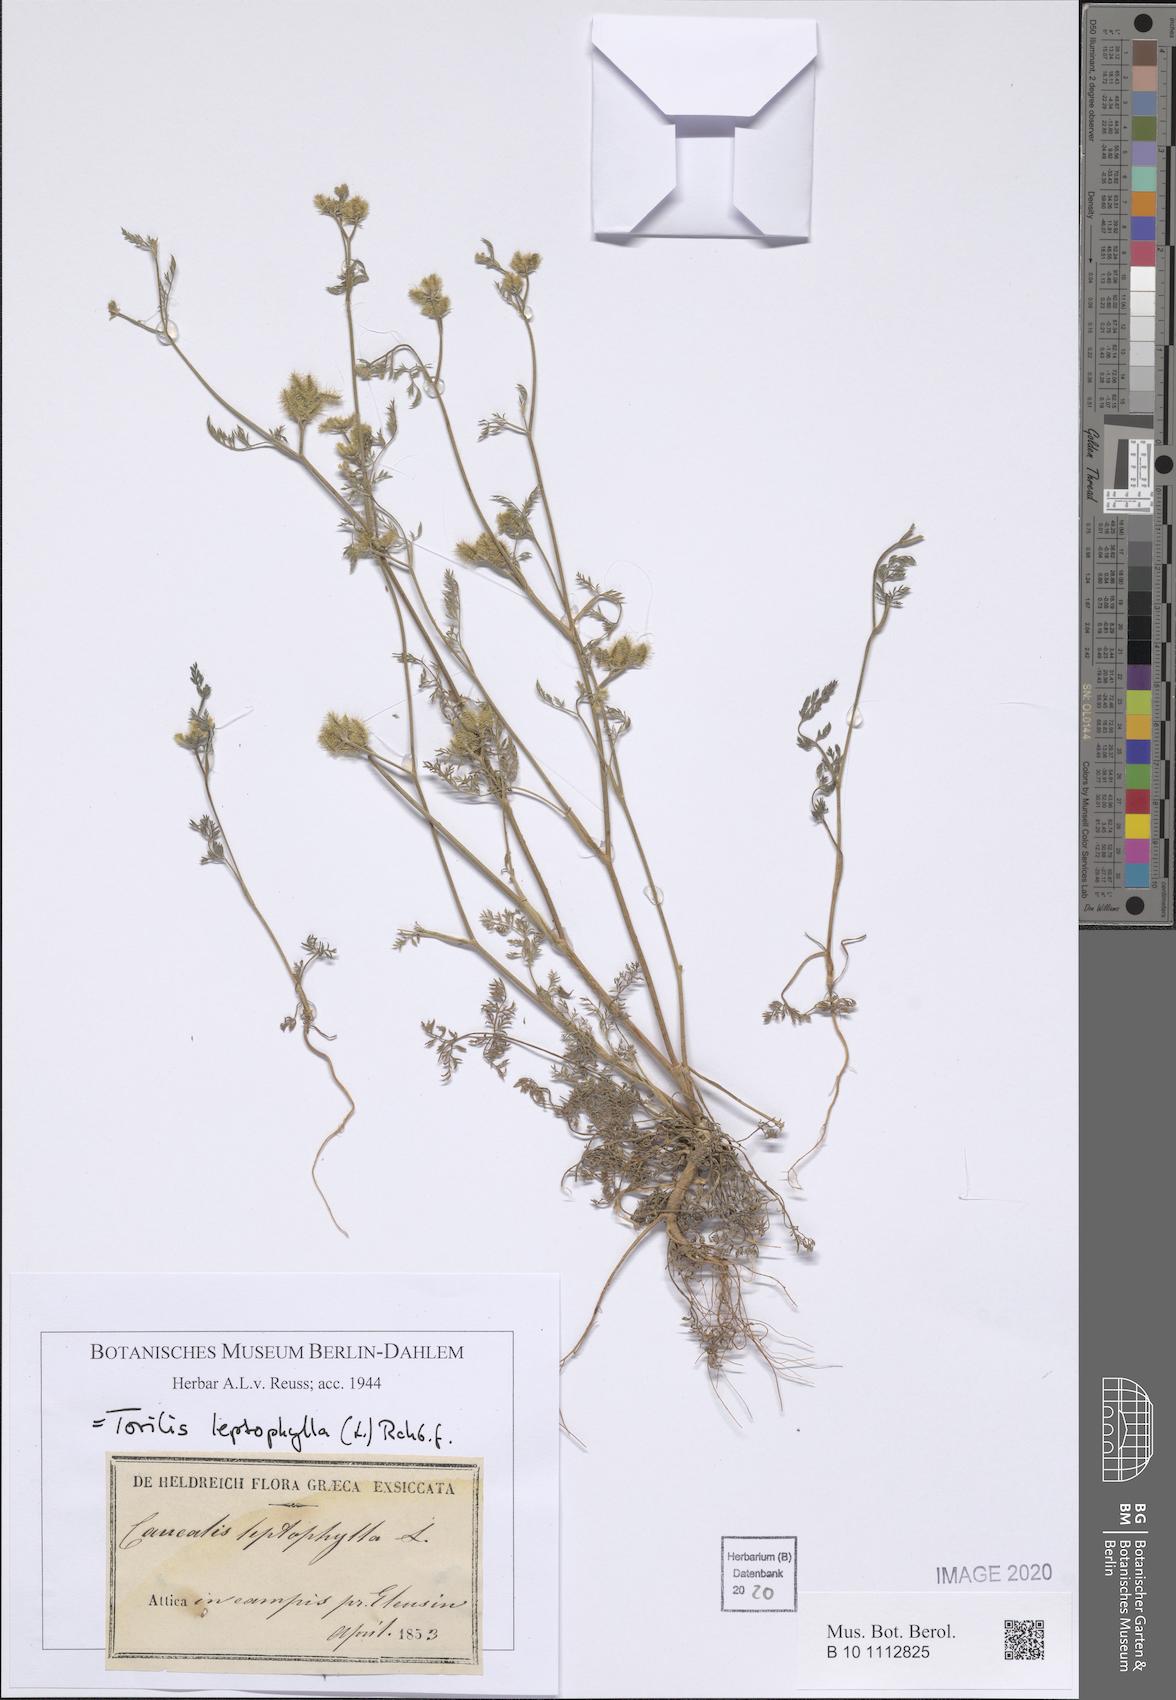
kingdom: Plantae
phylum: Tracheophyta
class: Magnoliopsida
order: Apiales
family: Apiaceae
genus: Torilis
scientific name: Torilis leptophylla
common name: Bristlefruit hedgeparsley
